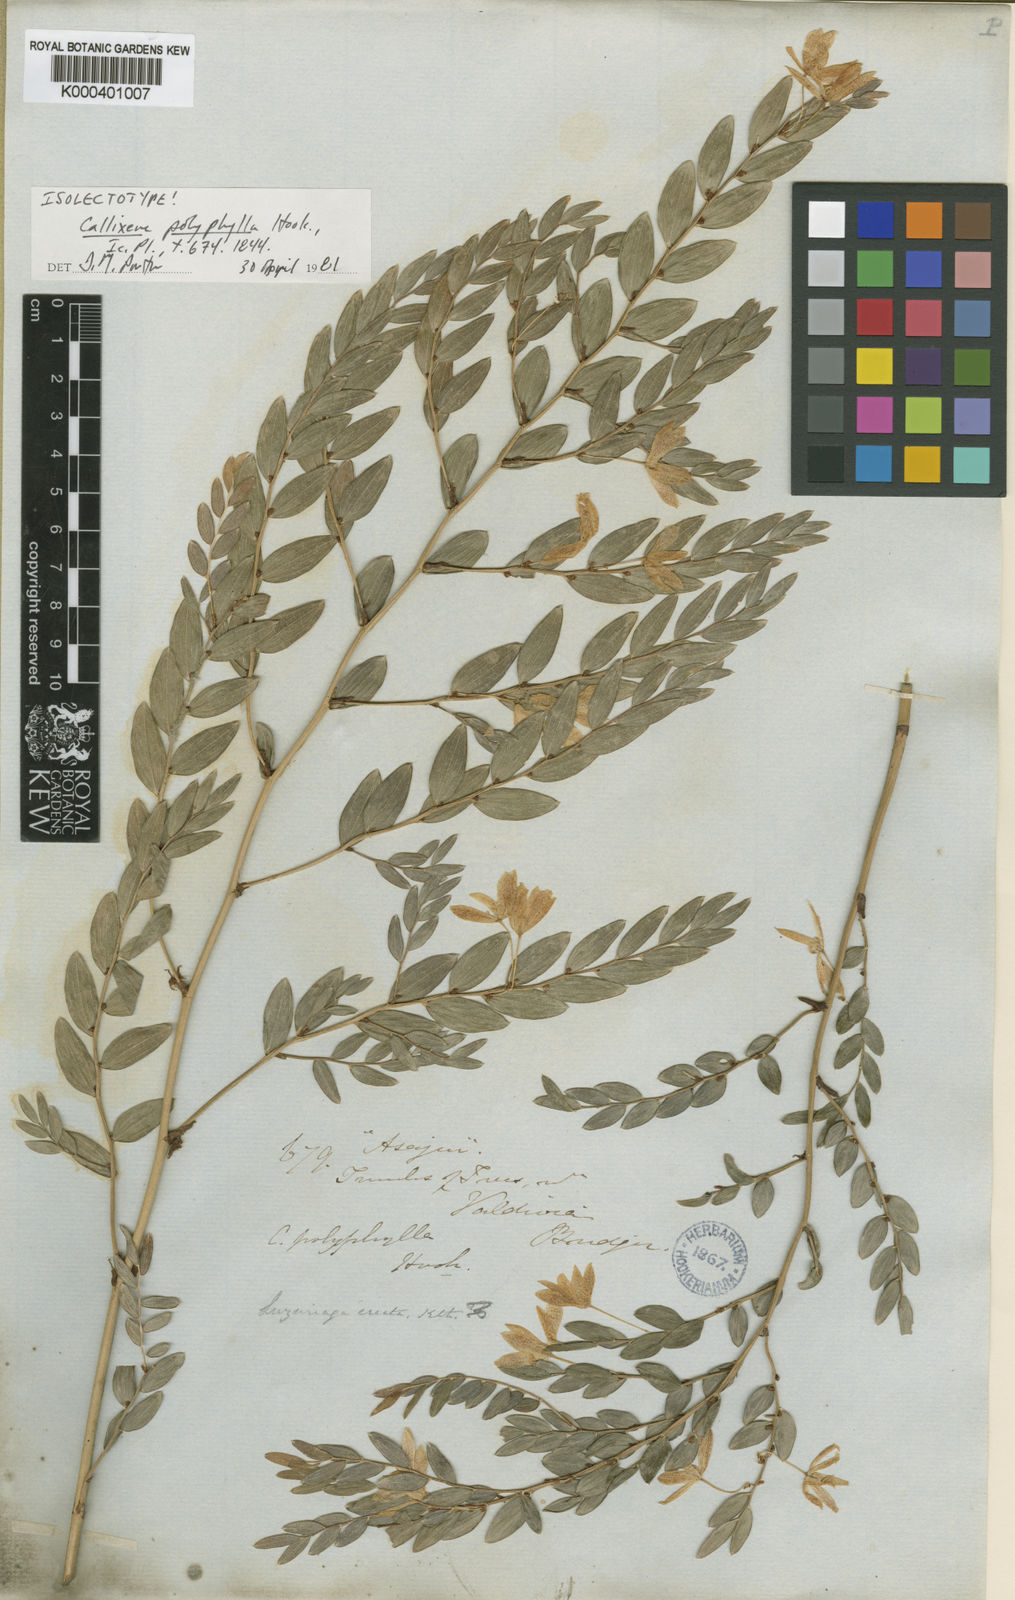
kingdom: Plantae
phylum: Tracheophyta
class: Liliopsida
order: Liliales
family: Alstroemeriaceae
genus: Luzuriaga
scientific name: Luzuriaga polyphylla
